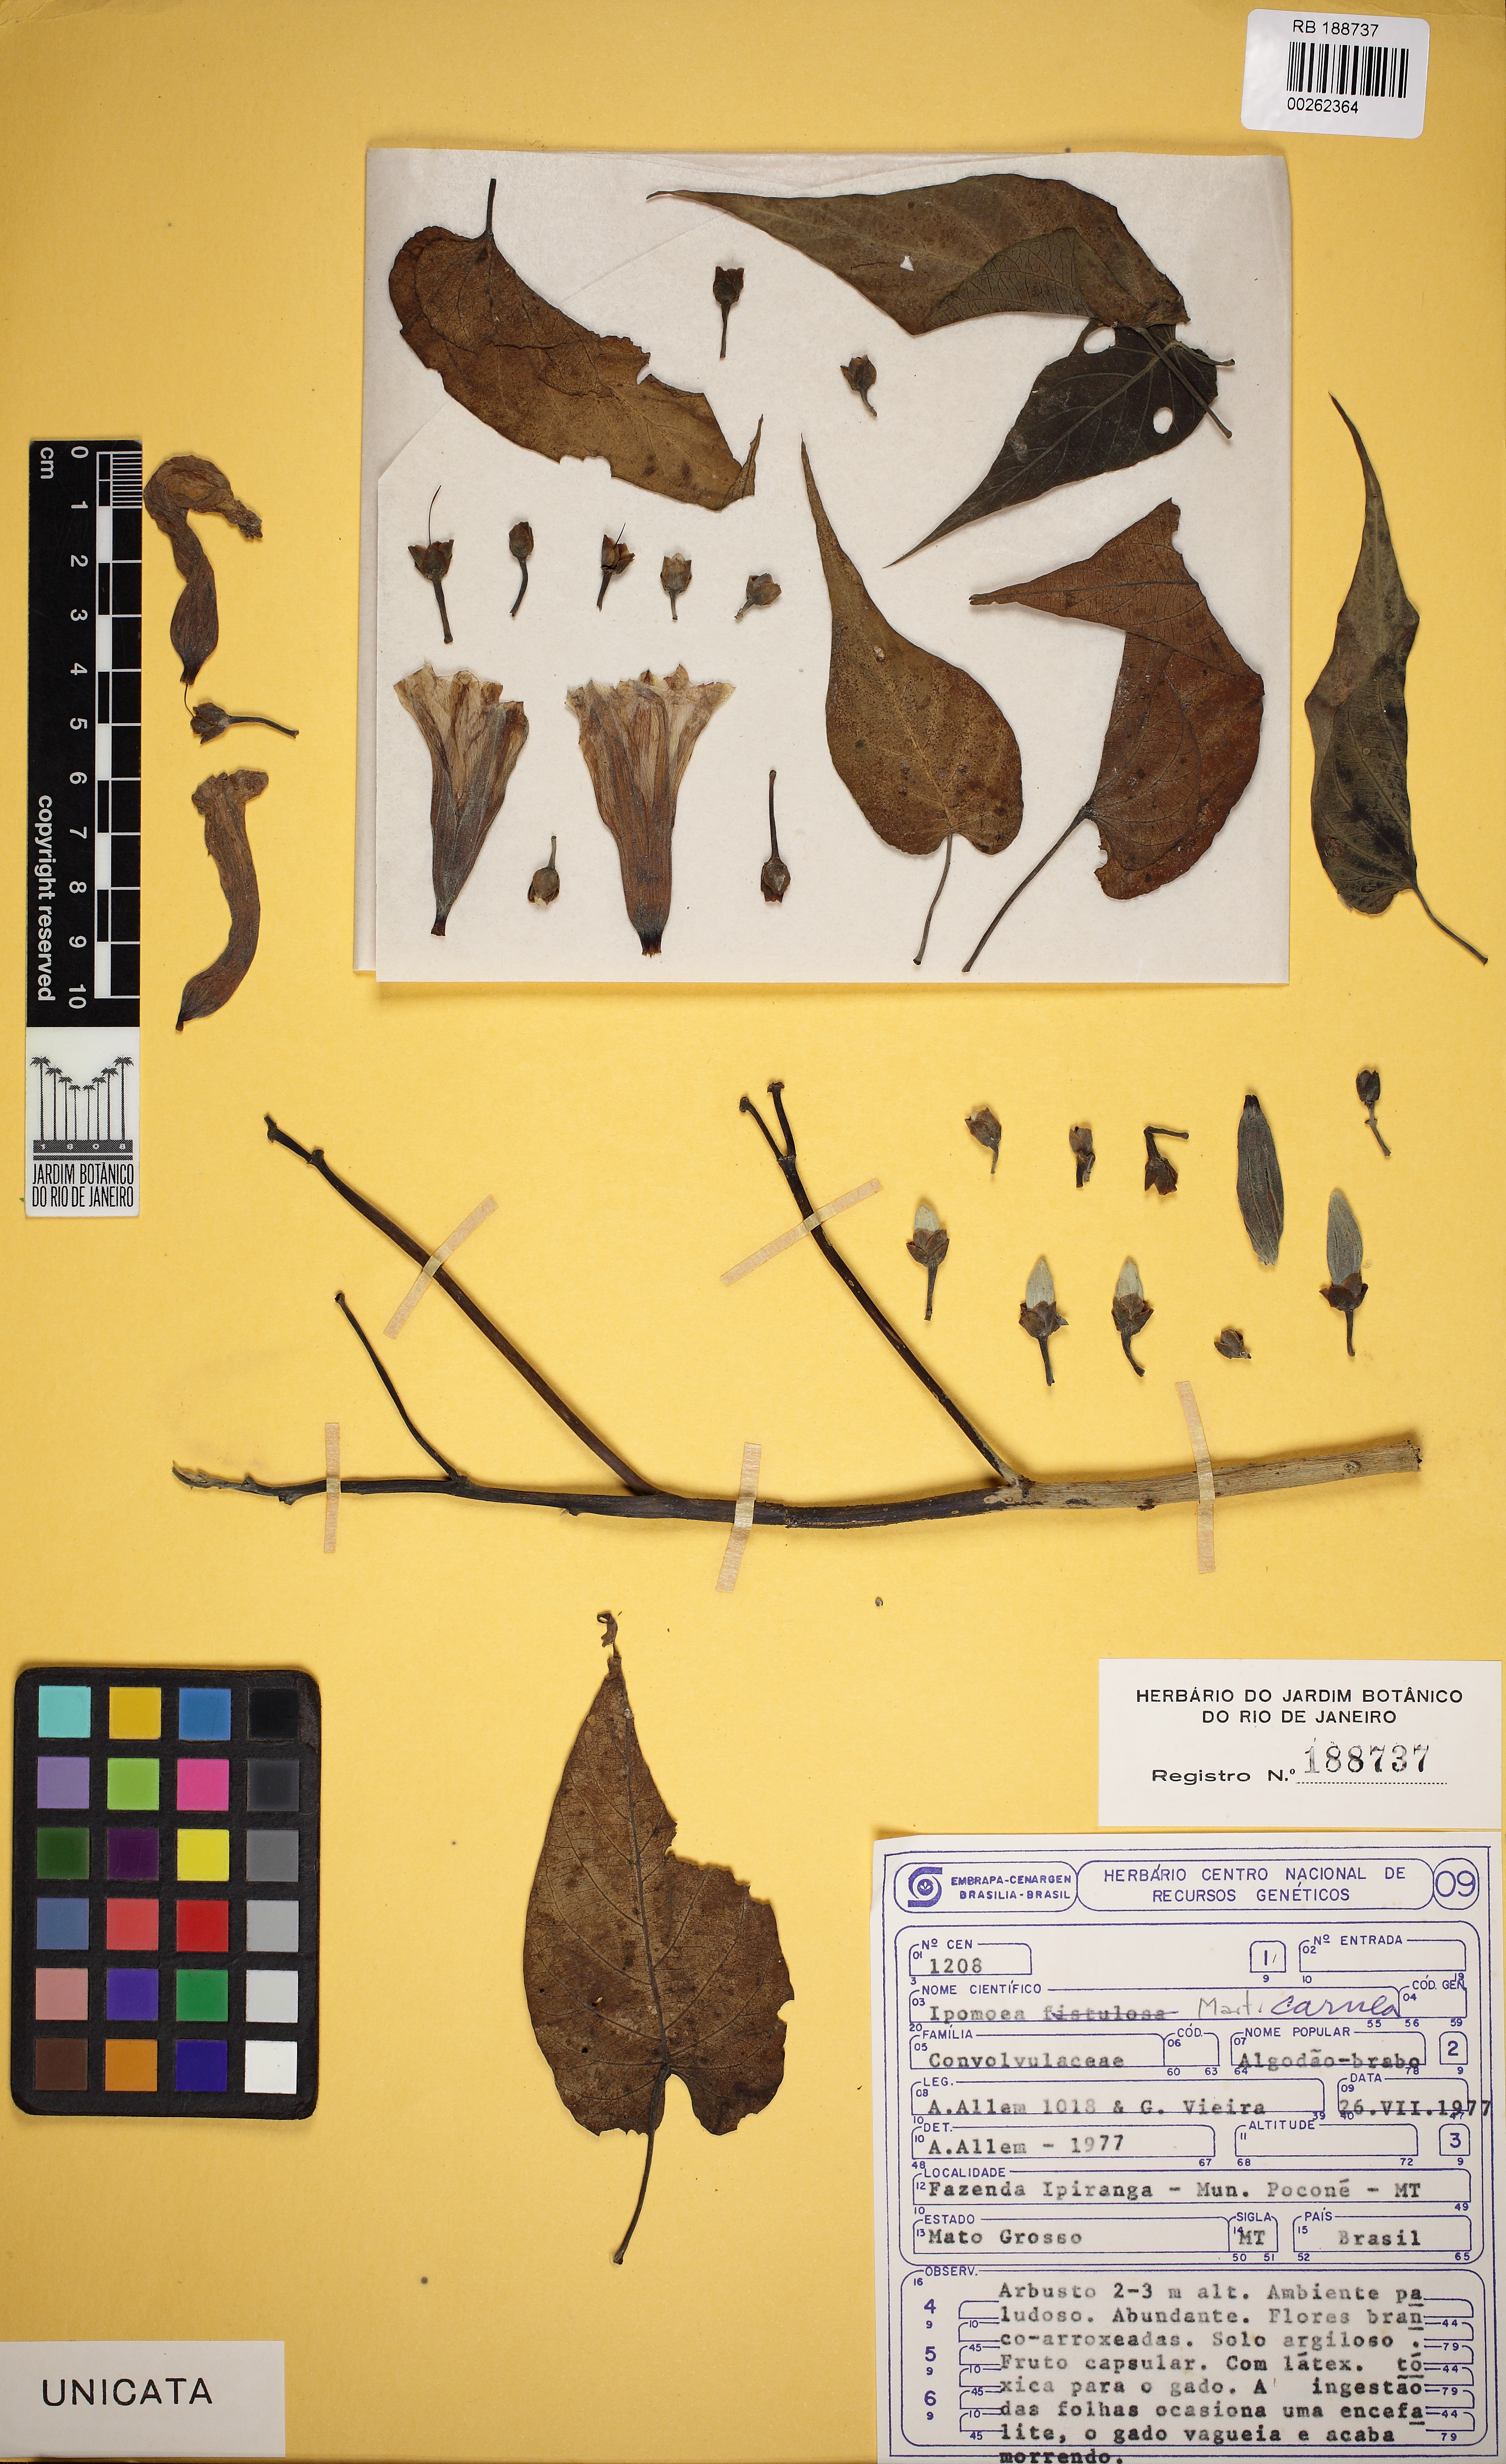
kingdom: Plantae
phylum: Tracheophyta
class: Magnoliopsida
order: Solanales
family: Convolvulaceae
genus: Ipomoea
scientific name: Ipomoea carnea
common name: Morning-glory
